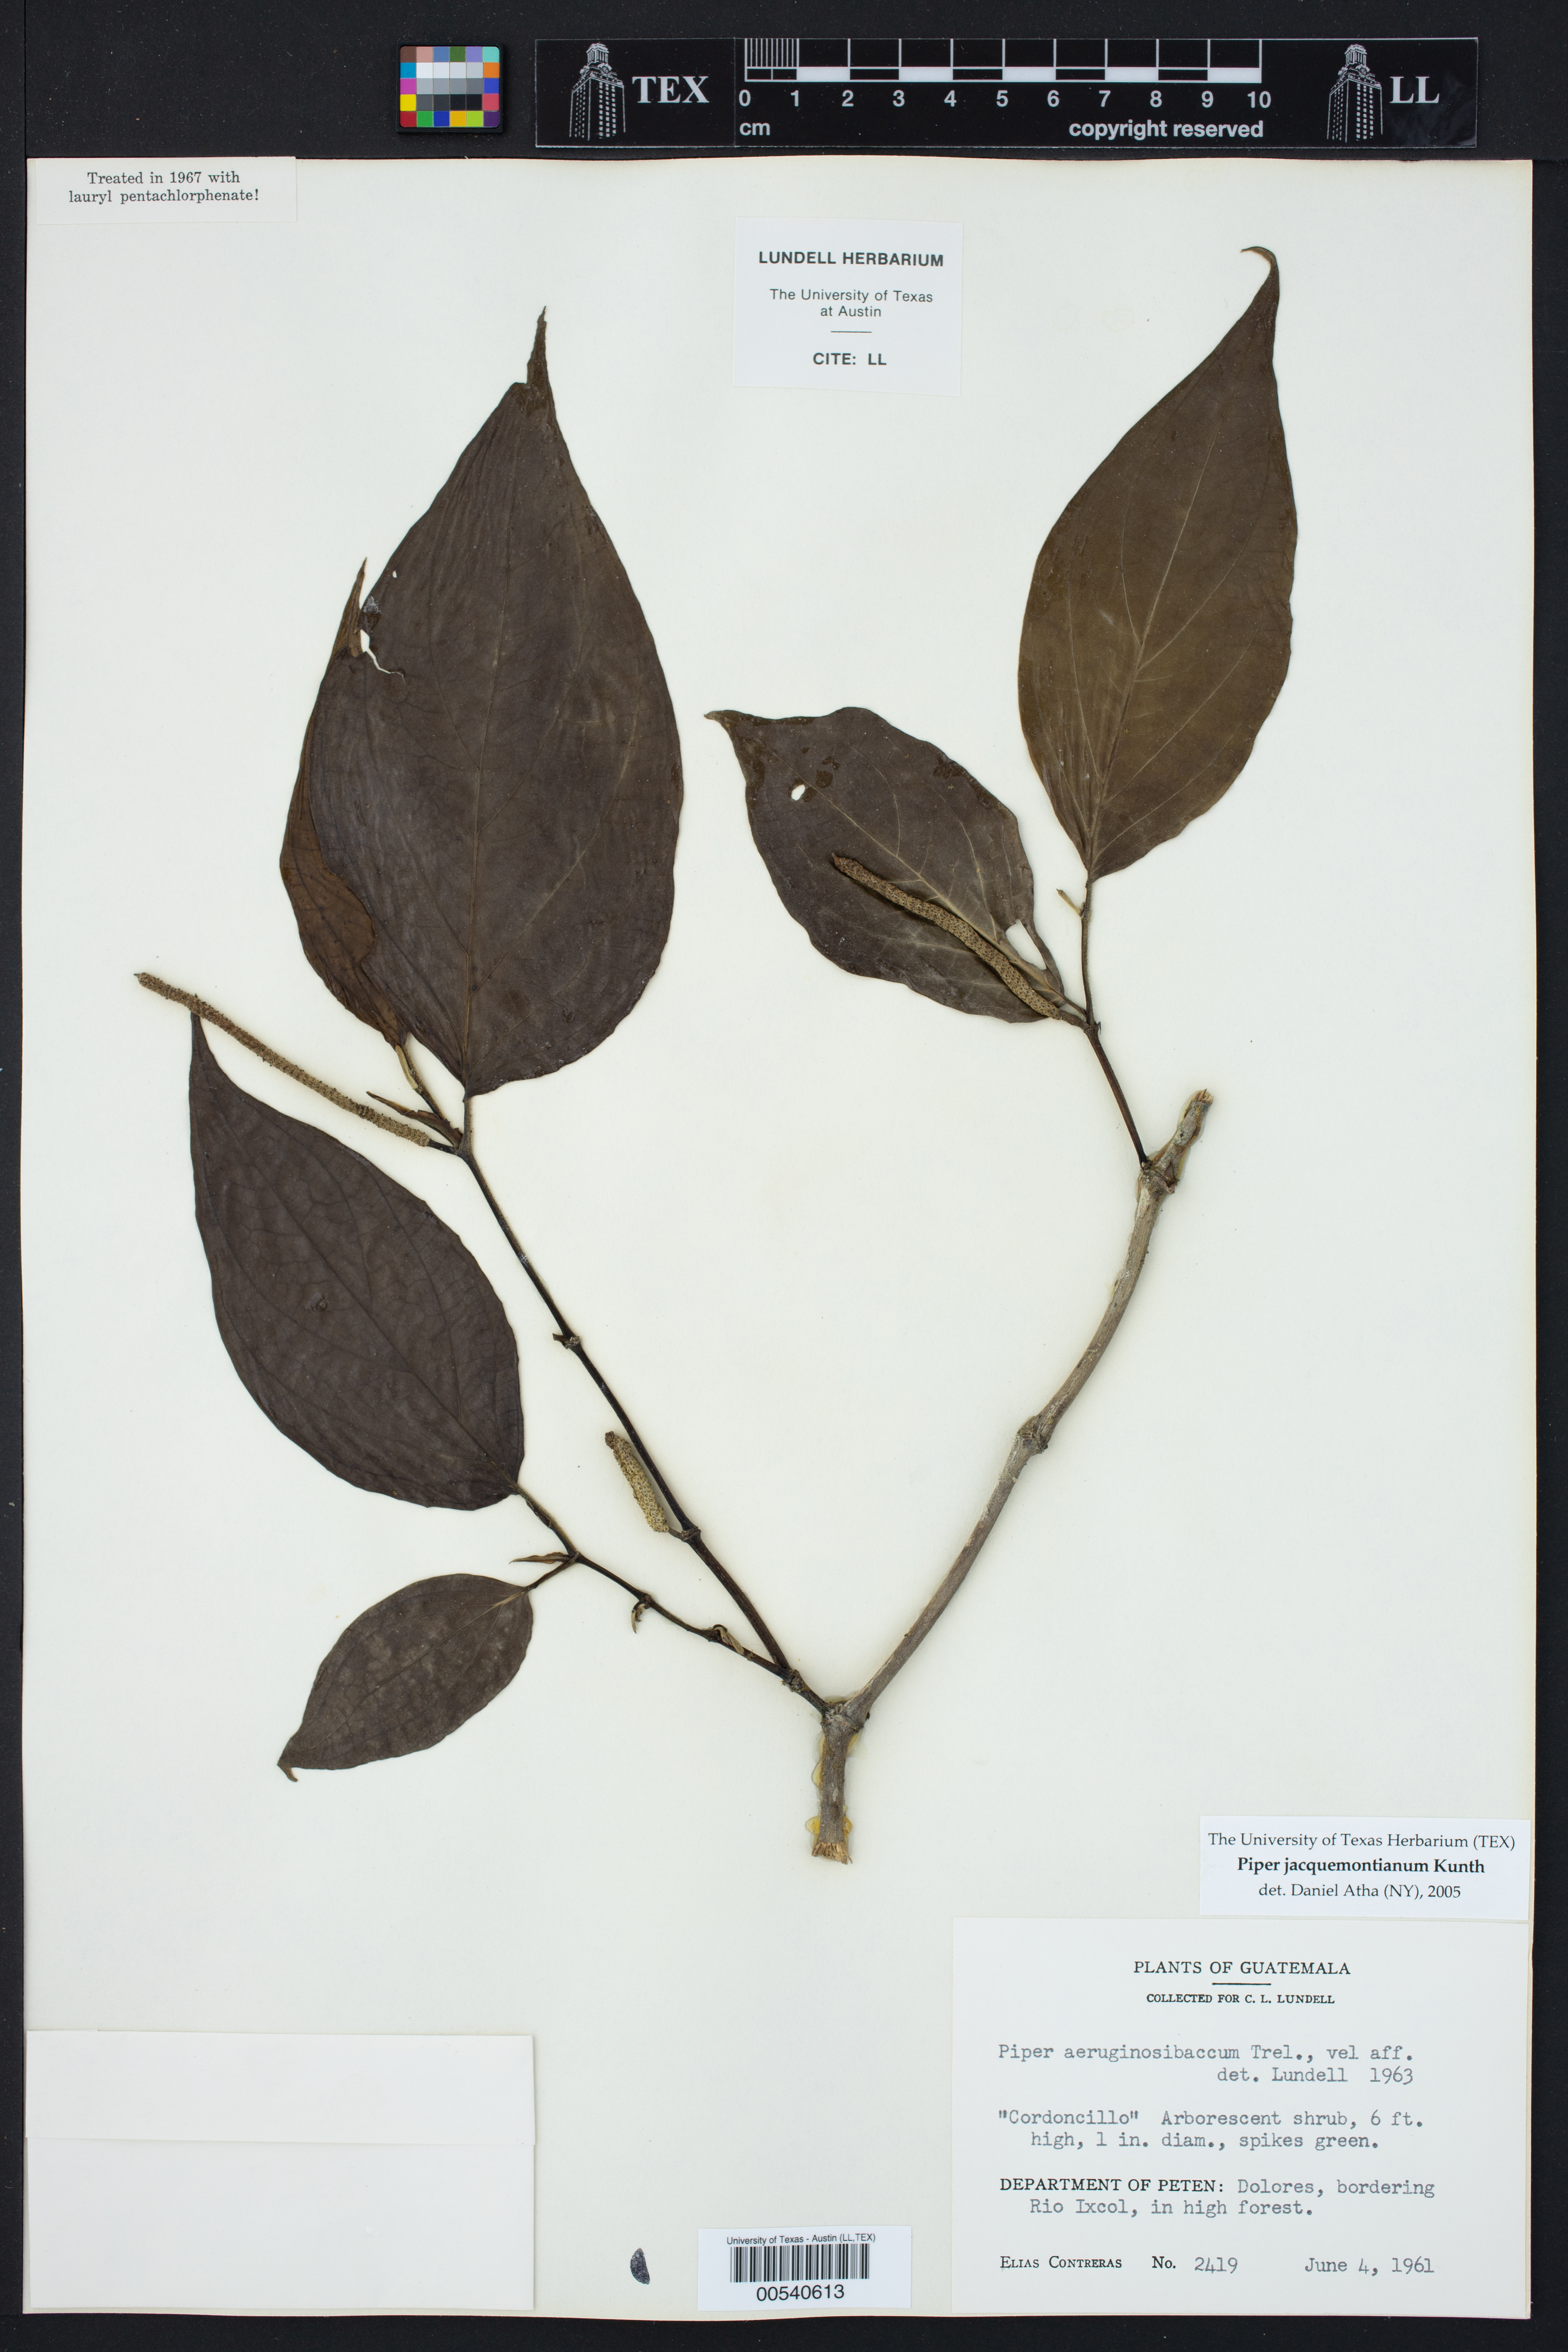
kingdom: Plantae
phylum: Tracheophyta
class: Magnoliopsida
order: Piperales
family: Piperaceae
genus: Piper
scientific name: Piper jacquemontianum
